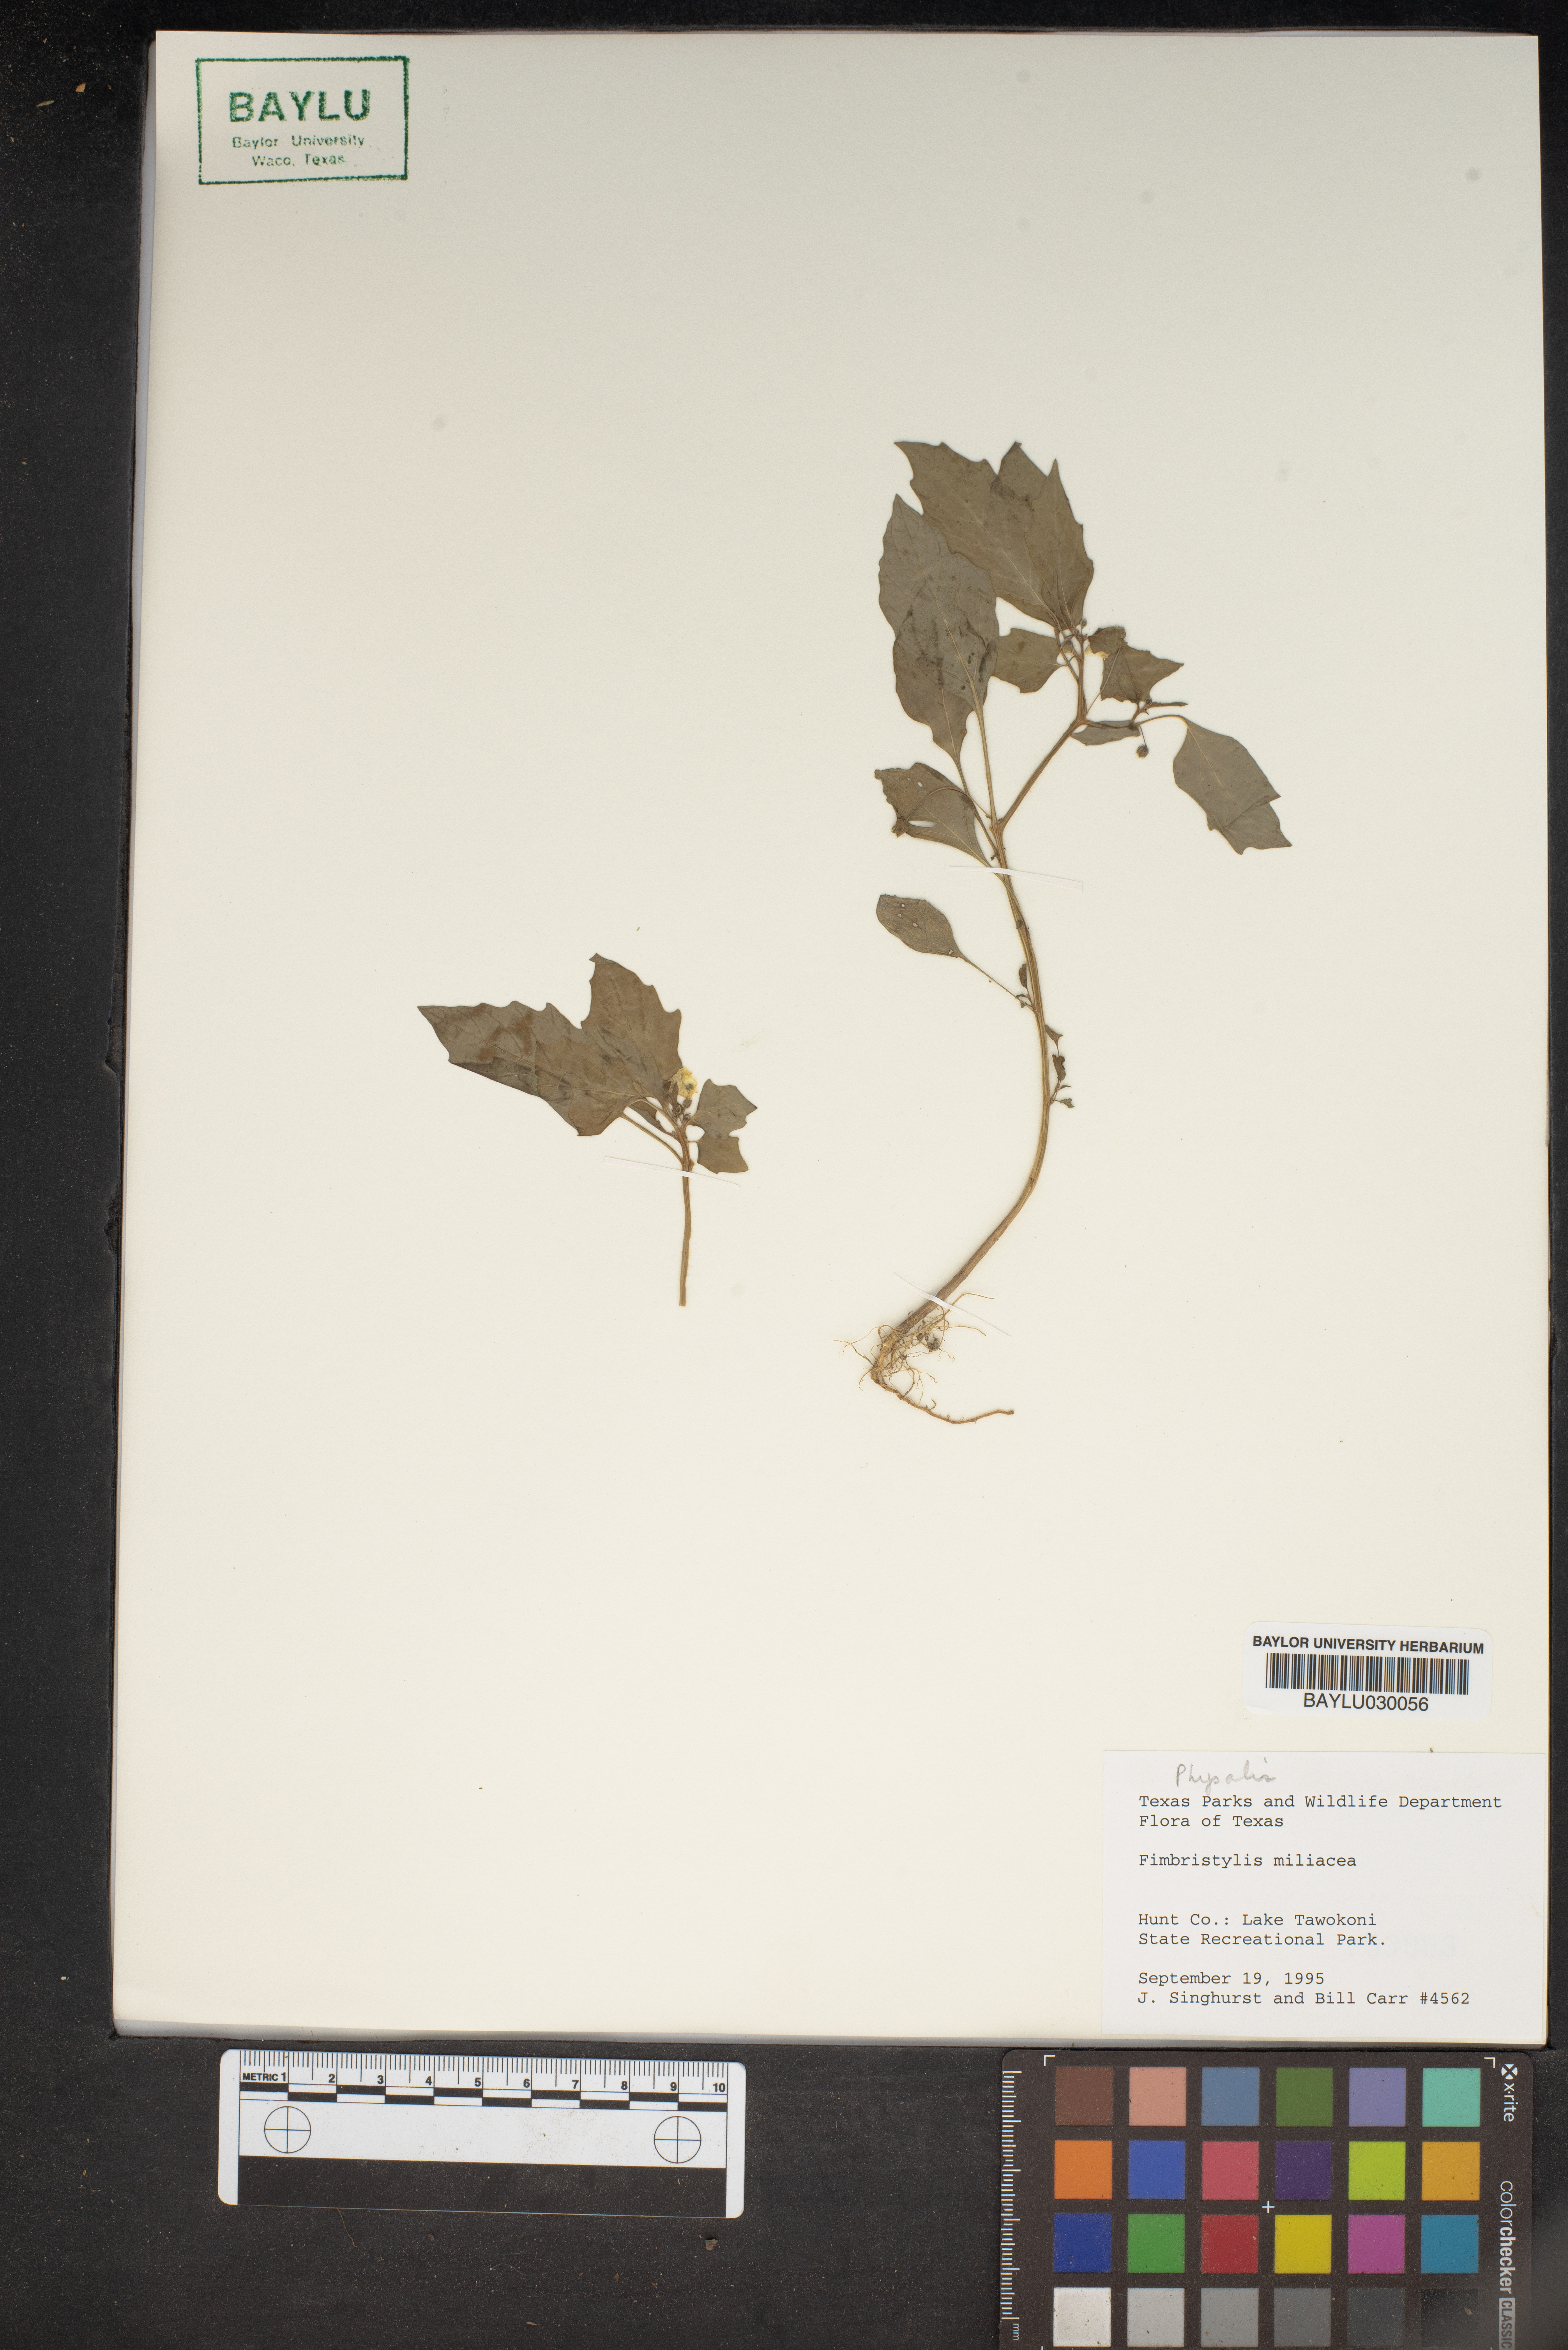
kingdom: Plantae
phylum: Tracheophyta
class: Liliopsida
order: Poales
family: Cyperaceae
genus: Fimbristylis
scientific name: Fimbristylis quinquangularis
